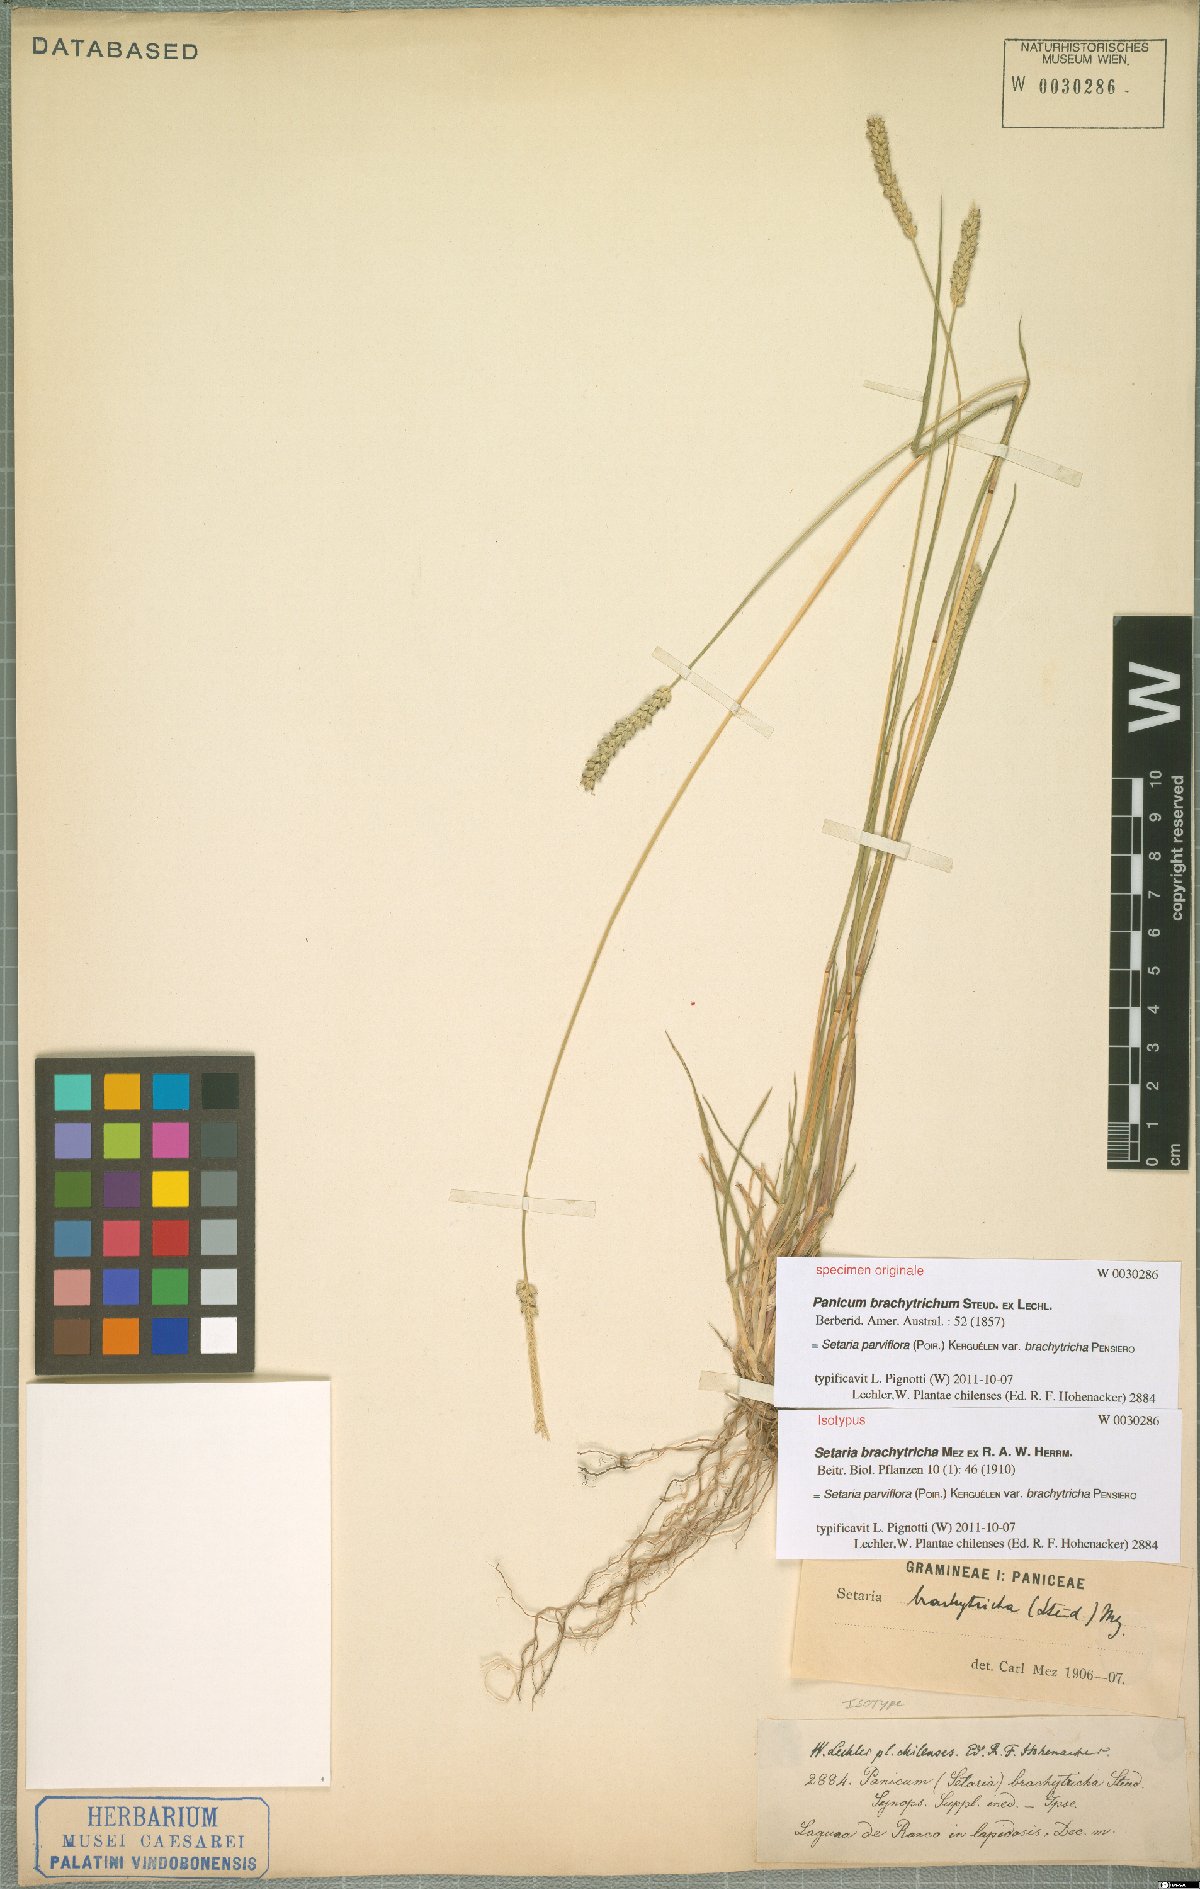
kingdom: Plantae
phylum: Tracheophyta
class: Liliopsida
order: Poales
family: Poaceae
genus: Setaria
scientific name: Setaria parviflora
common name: Knotroot bristle-grass
